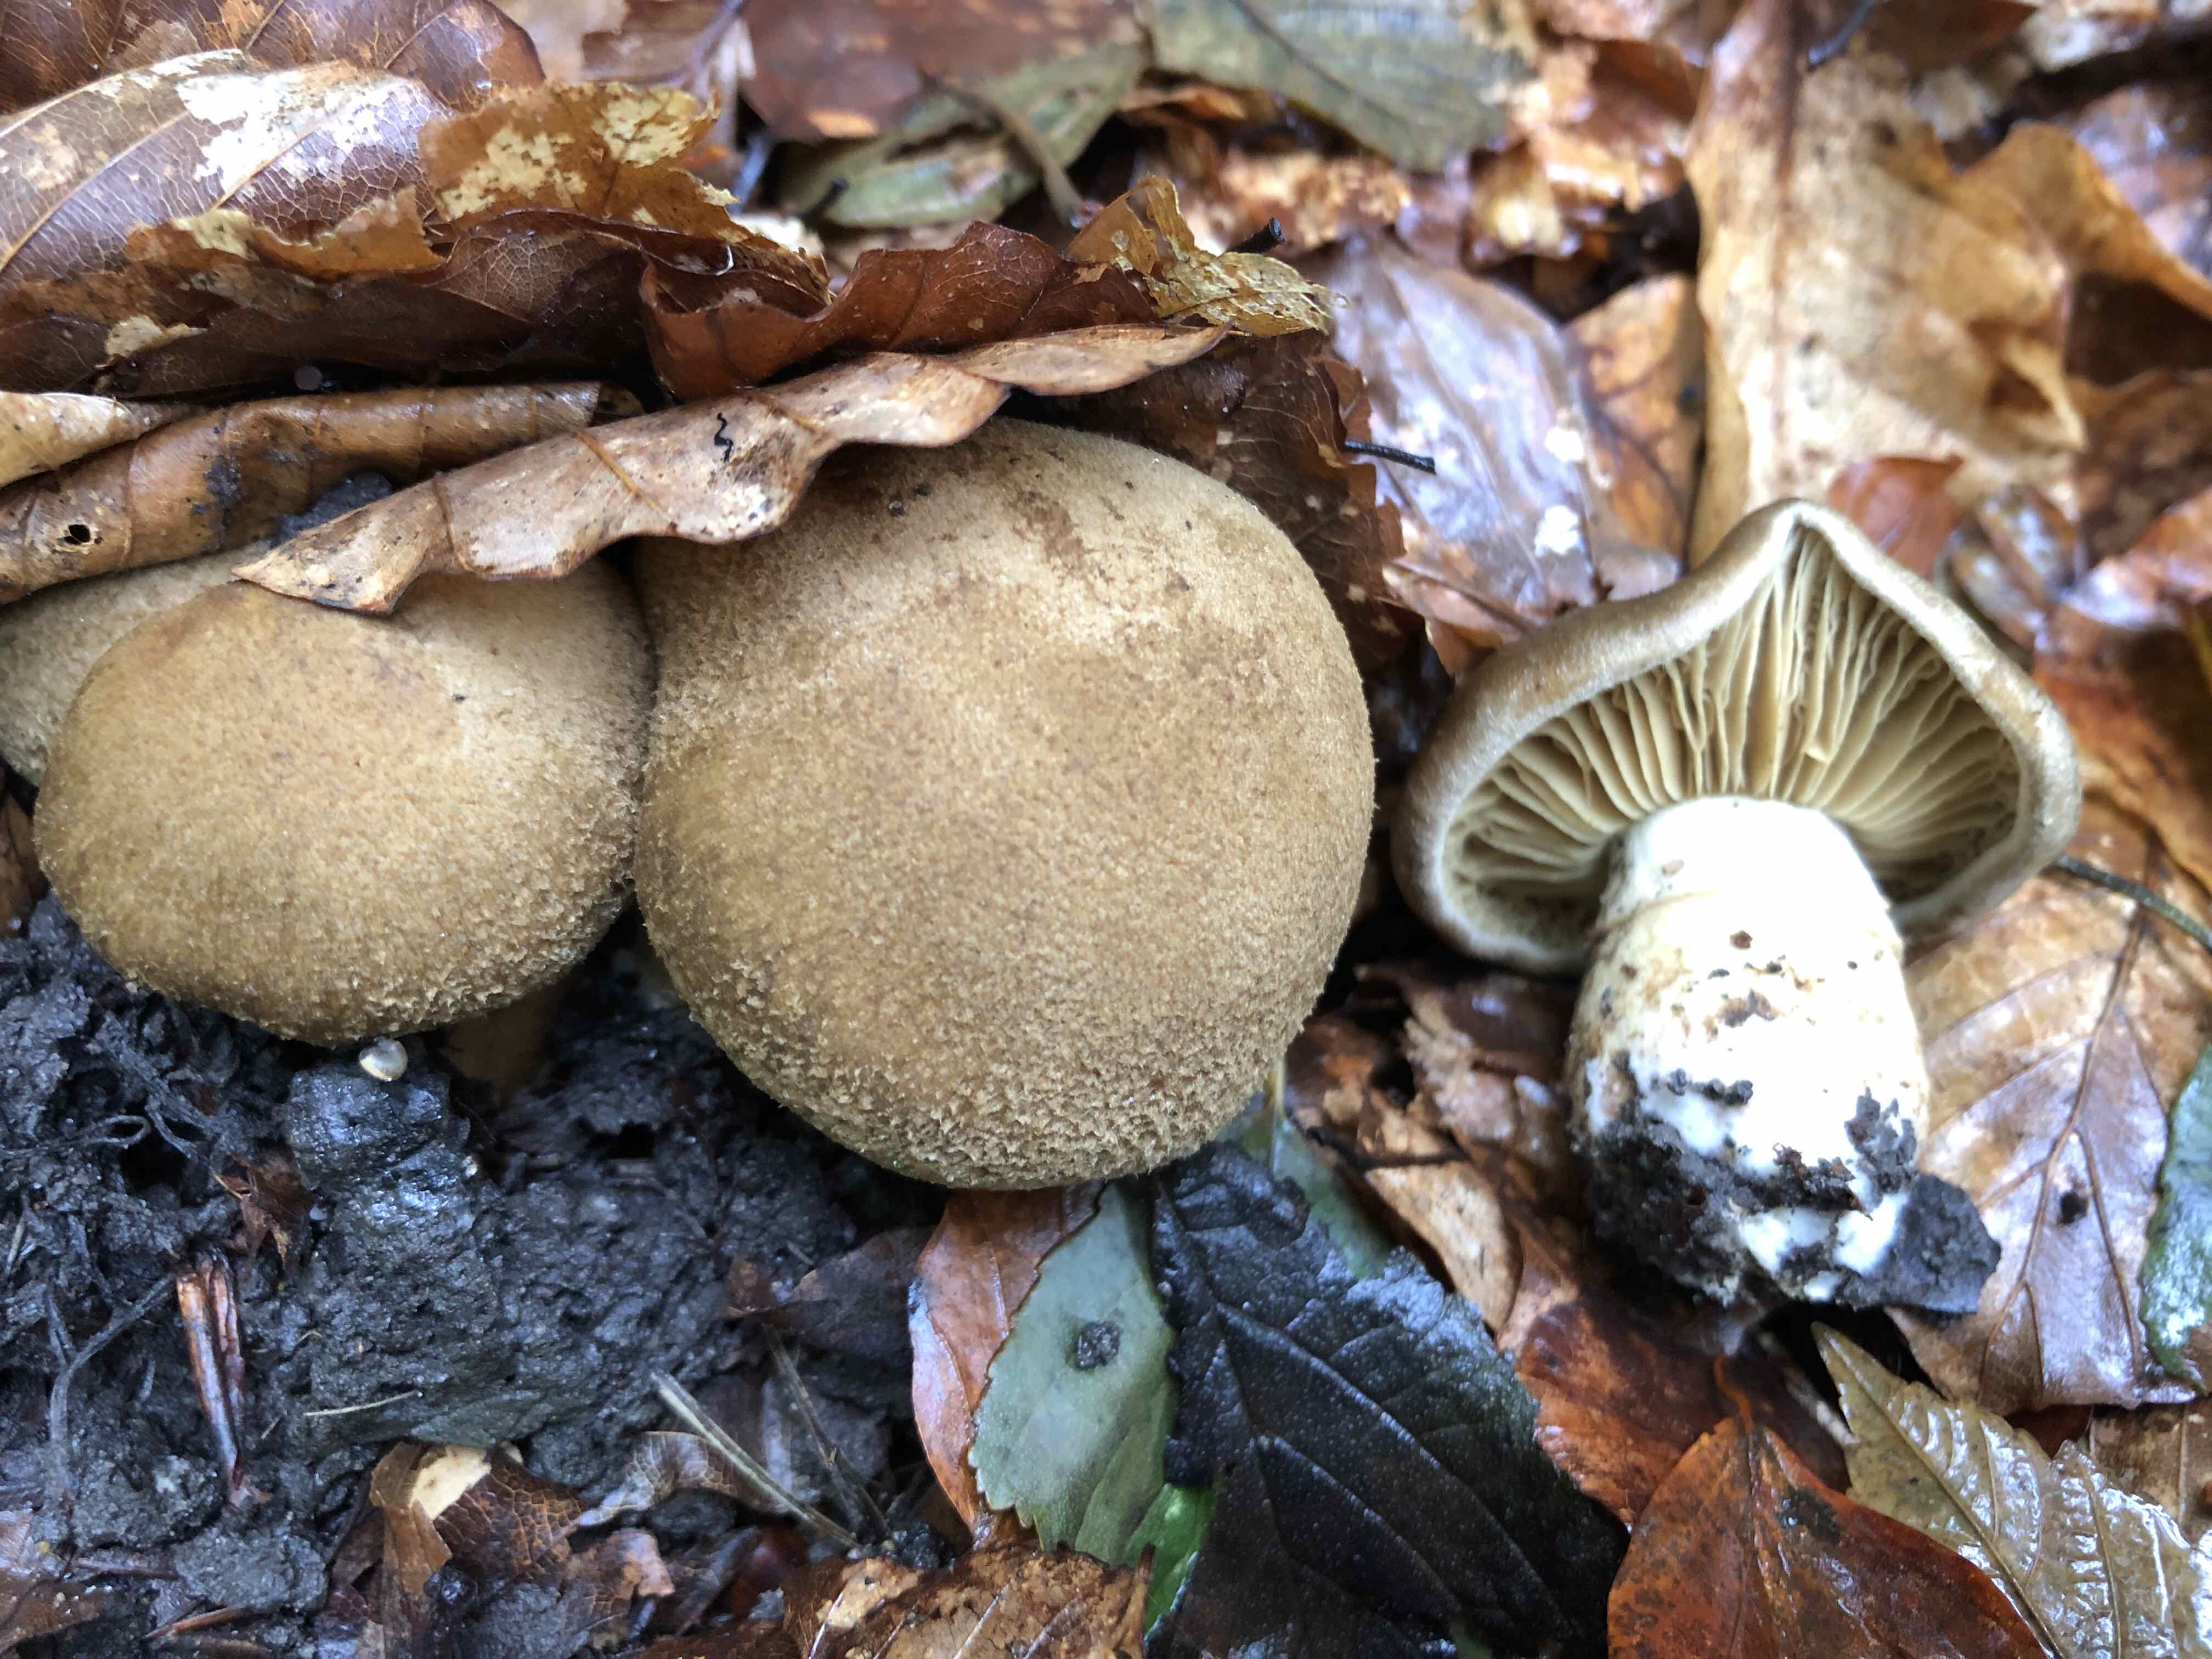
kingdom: Fungi
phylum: Basidiomycota
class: Agaricomycetes
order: Agaricales
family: Cortinariaceae
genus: Cortinarius
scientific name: Cortinarius cotoneus
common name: ulden slørhat
